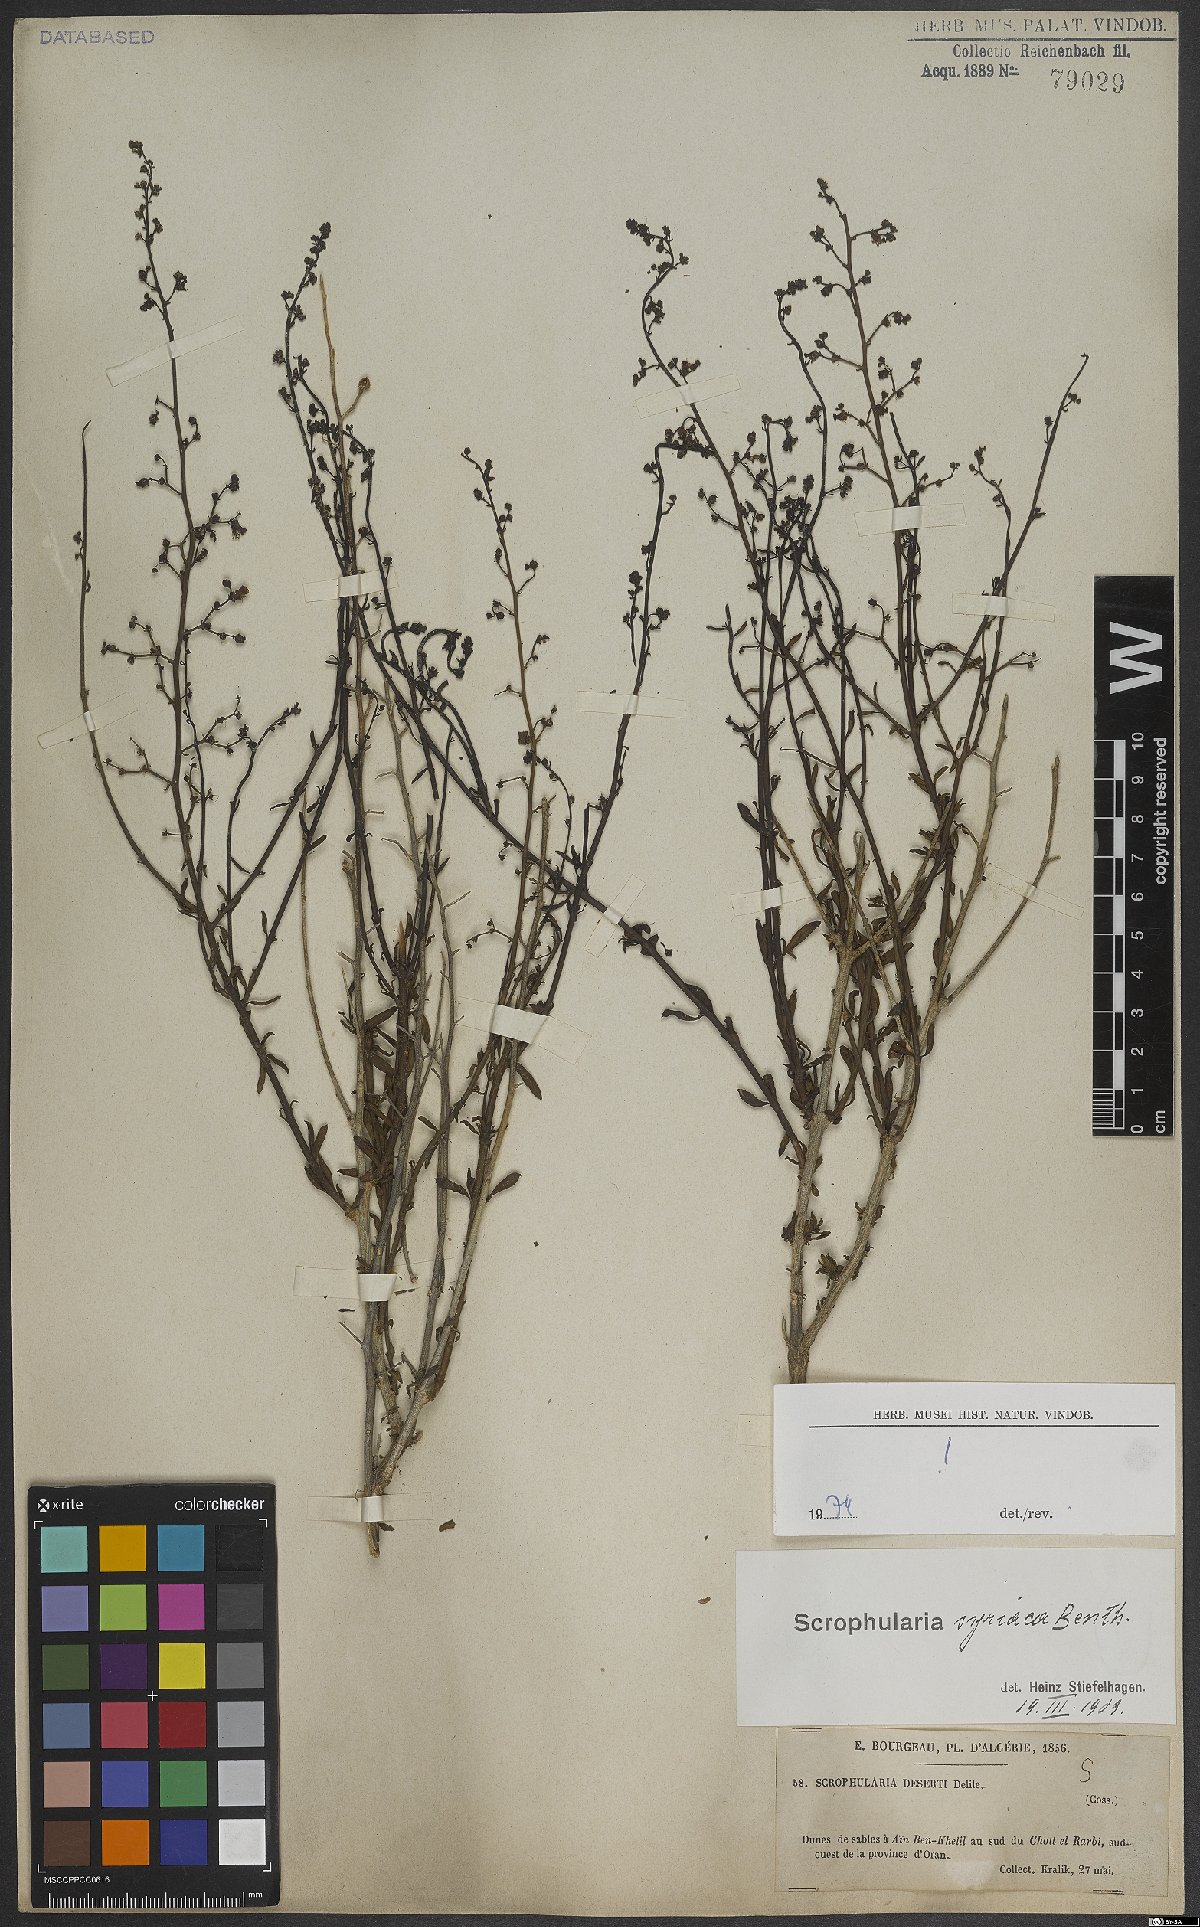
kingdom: Plantae
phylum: Tracheophyta
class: Magnoliopsida
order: Lamiales
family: Scrophulariaceae
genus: Scrophularia
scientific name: Scrophularia hypericifolia
